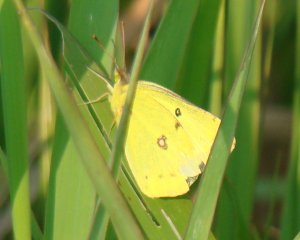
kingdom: Animalia
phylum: Arthropoda
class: Insecta
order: Lepidoptera
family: Pieridae
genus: Colias
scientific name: Colias philodice
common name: Clouded Sulphur
